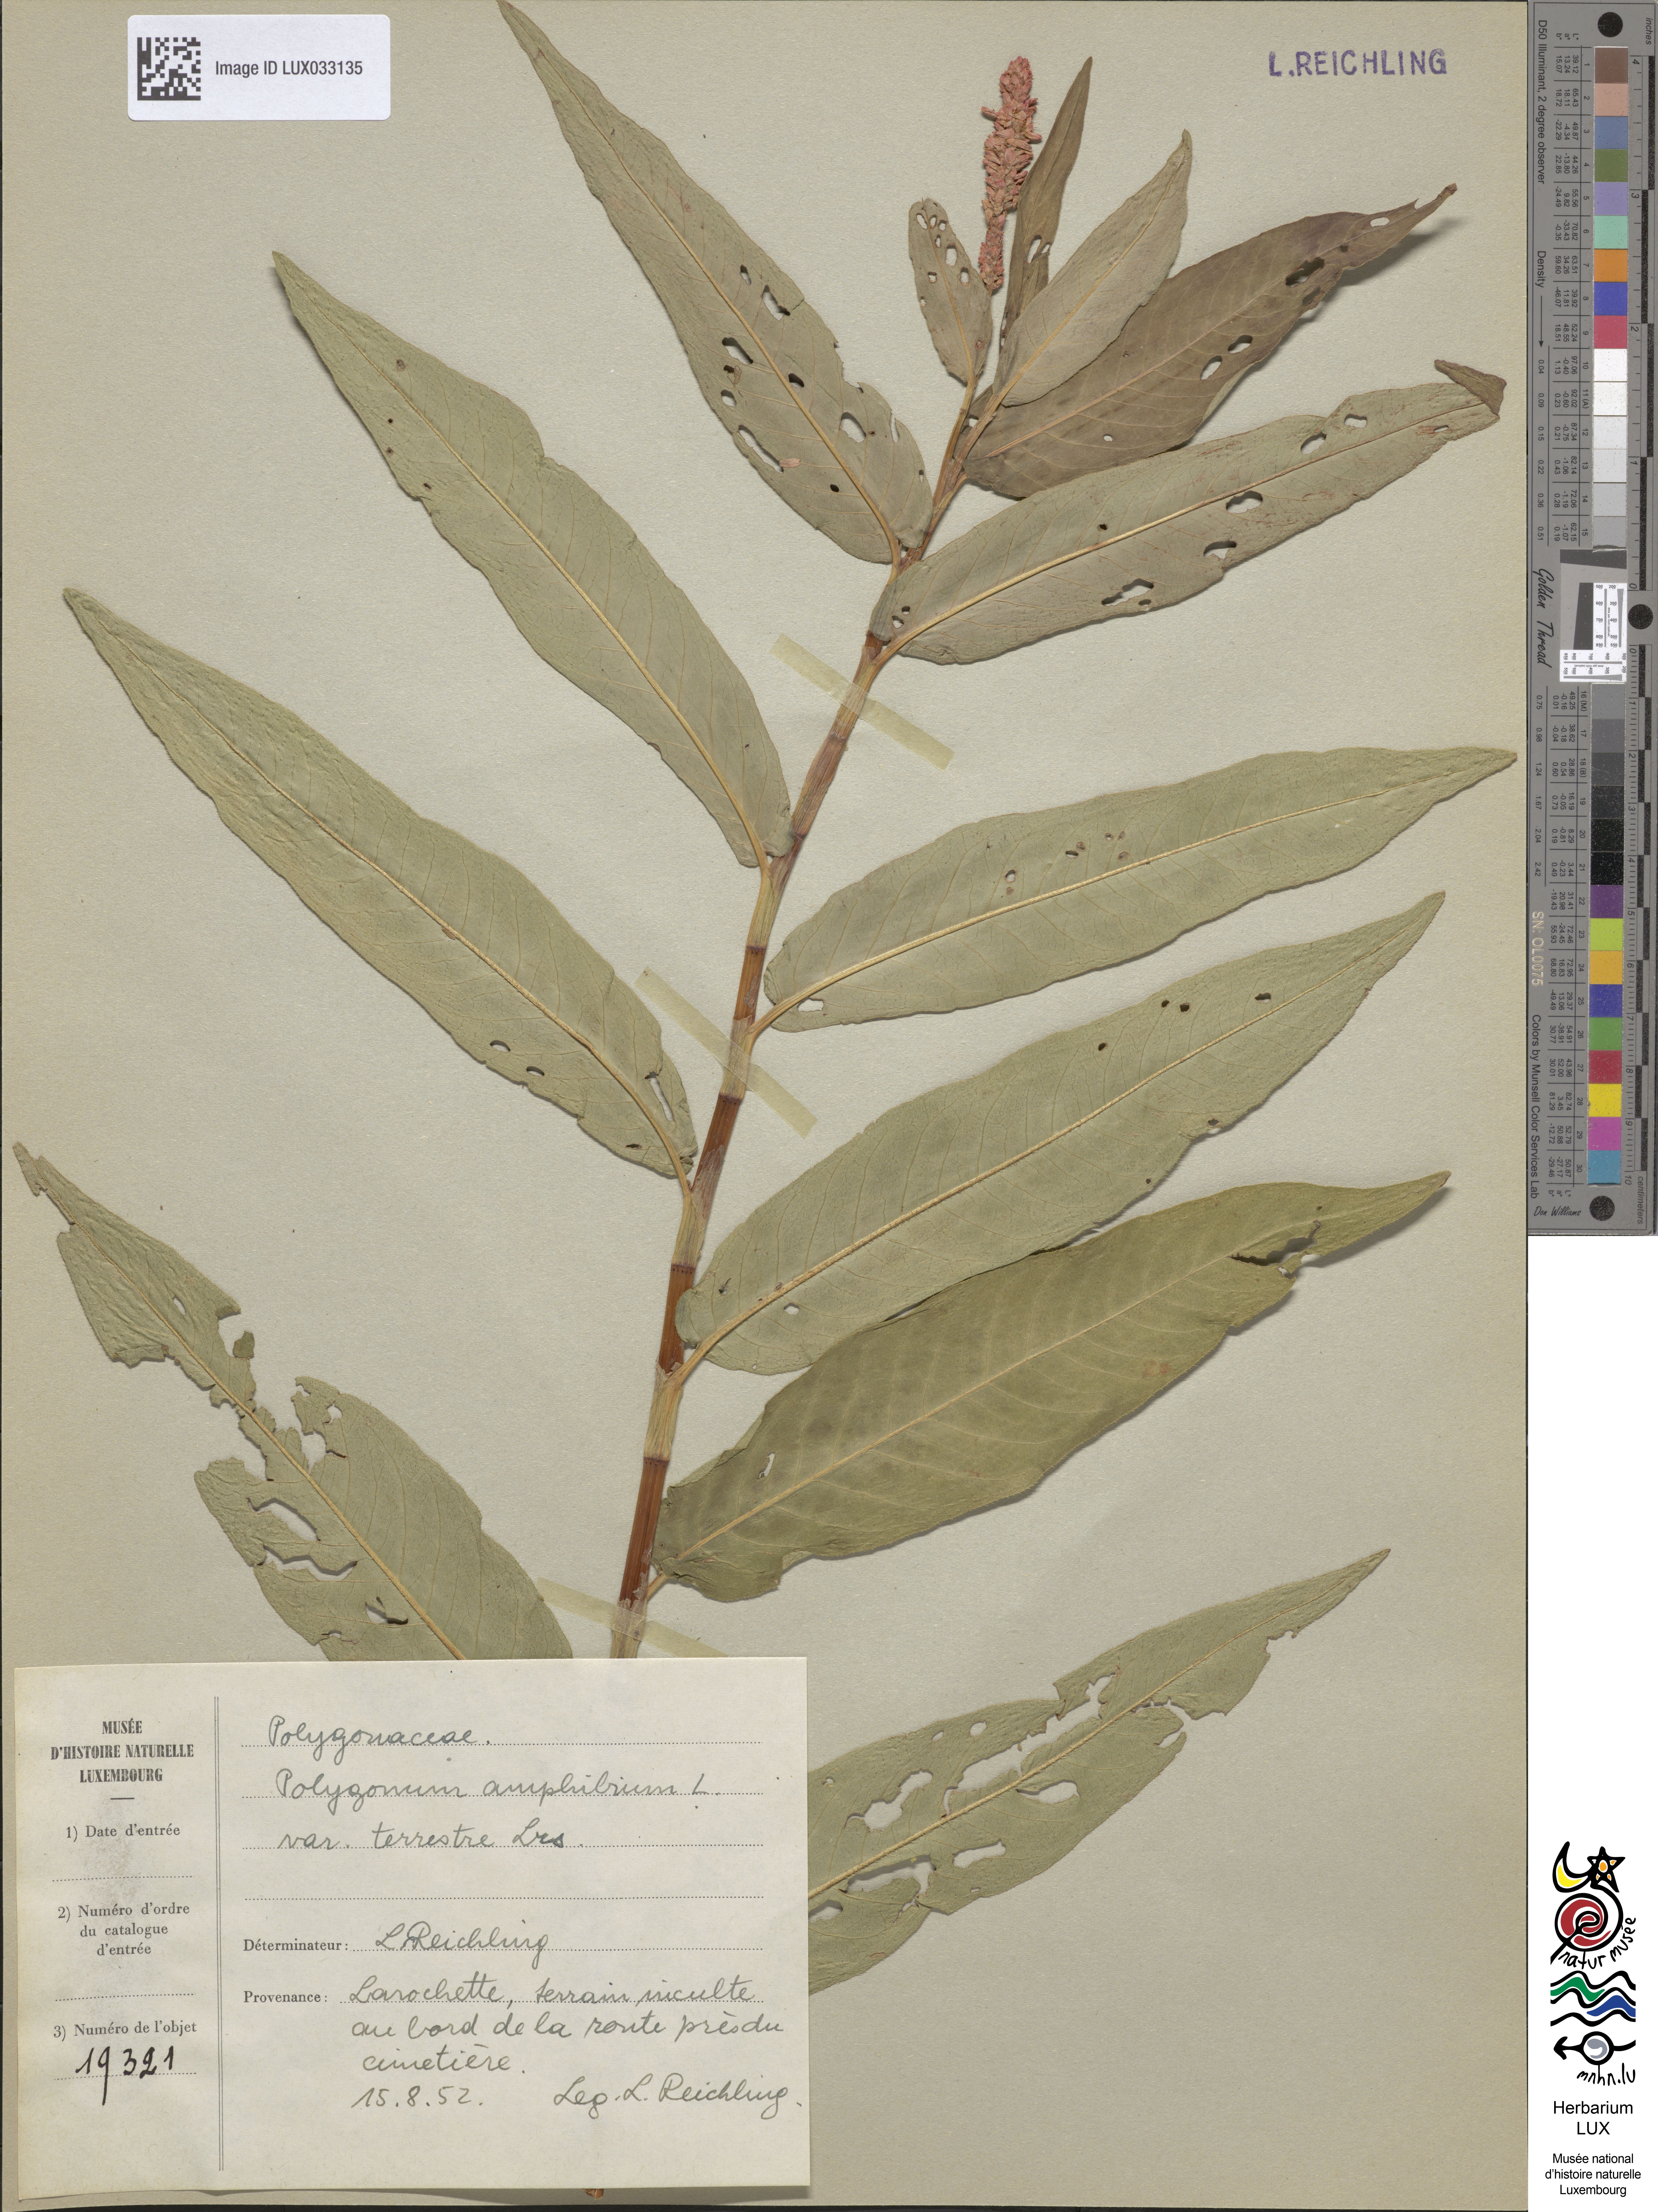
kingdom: Plantae
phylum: Tracheophyta
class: Magnoliopsida
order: Caryophyllales
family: Polygonaceae
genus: Persicaria
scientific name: Persicaria amphibia
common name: Amphibious bistort
